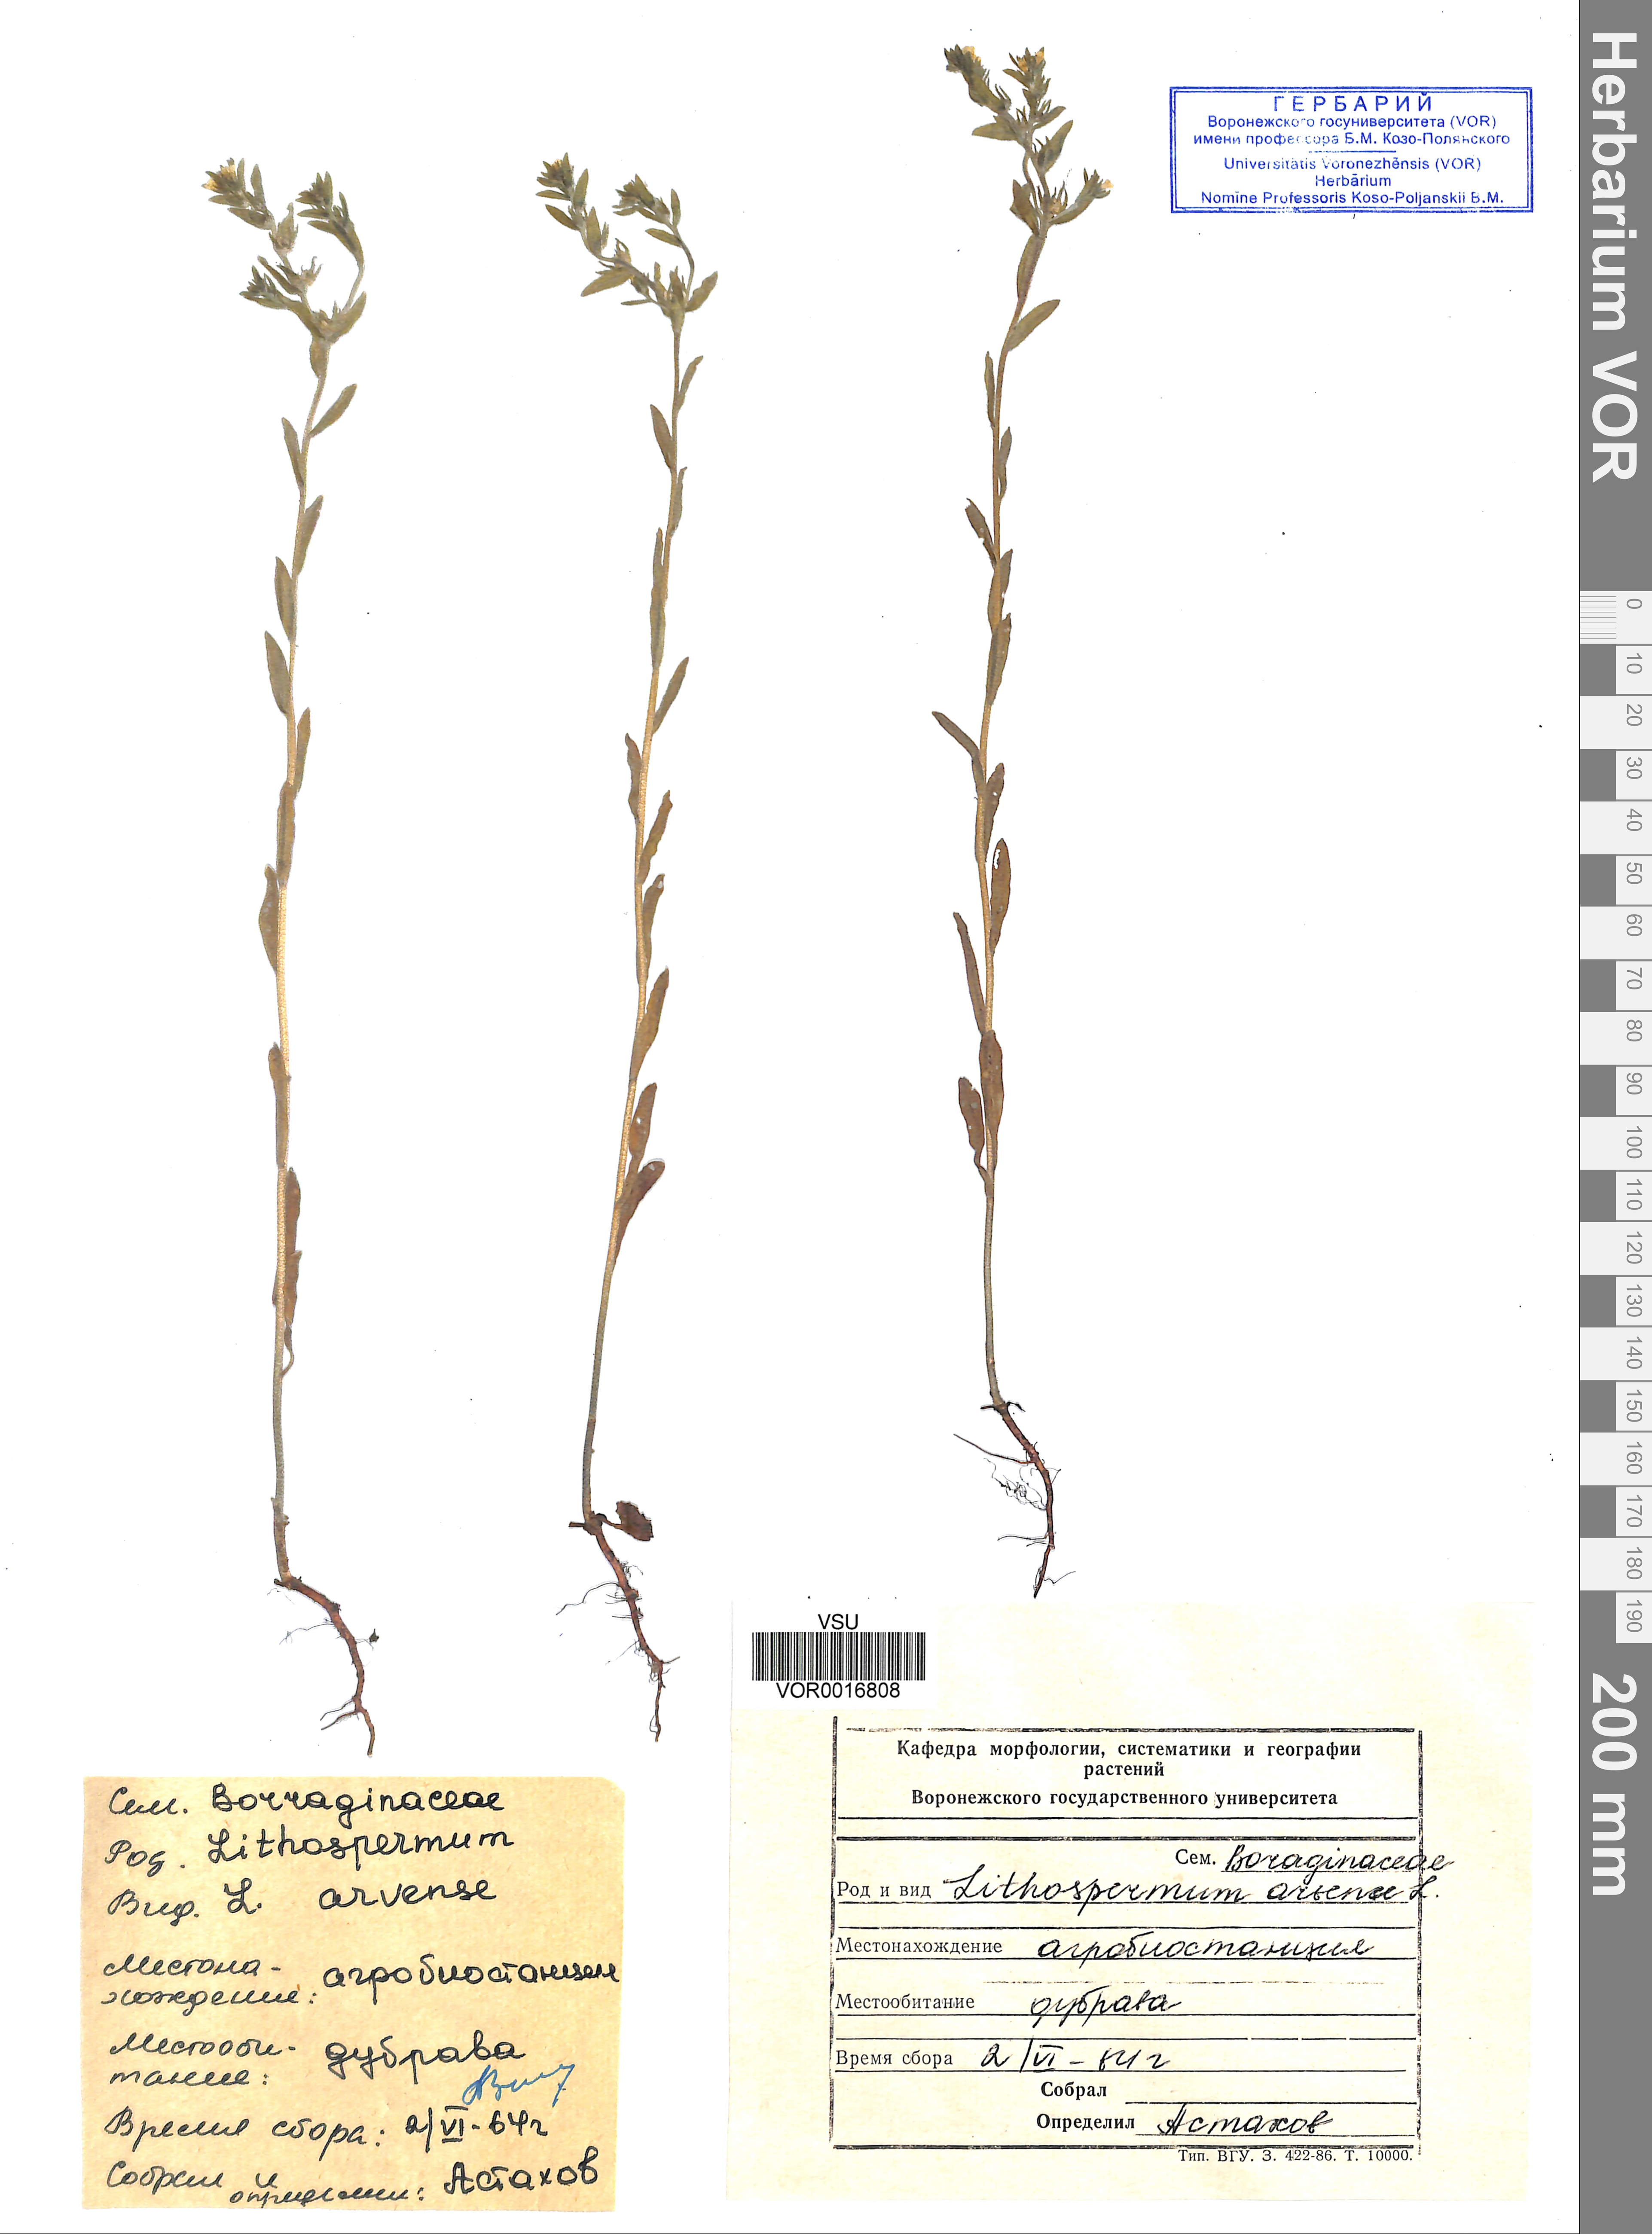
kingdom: Plantae
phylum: Tracheophyta
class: Magnoliopsida
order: Boraginales
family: Boraginaceae
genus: Buglossoides
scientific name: Buglossoides arvensis
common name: Corn gromwell
